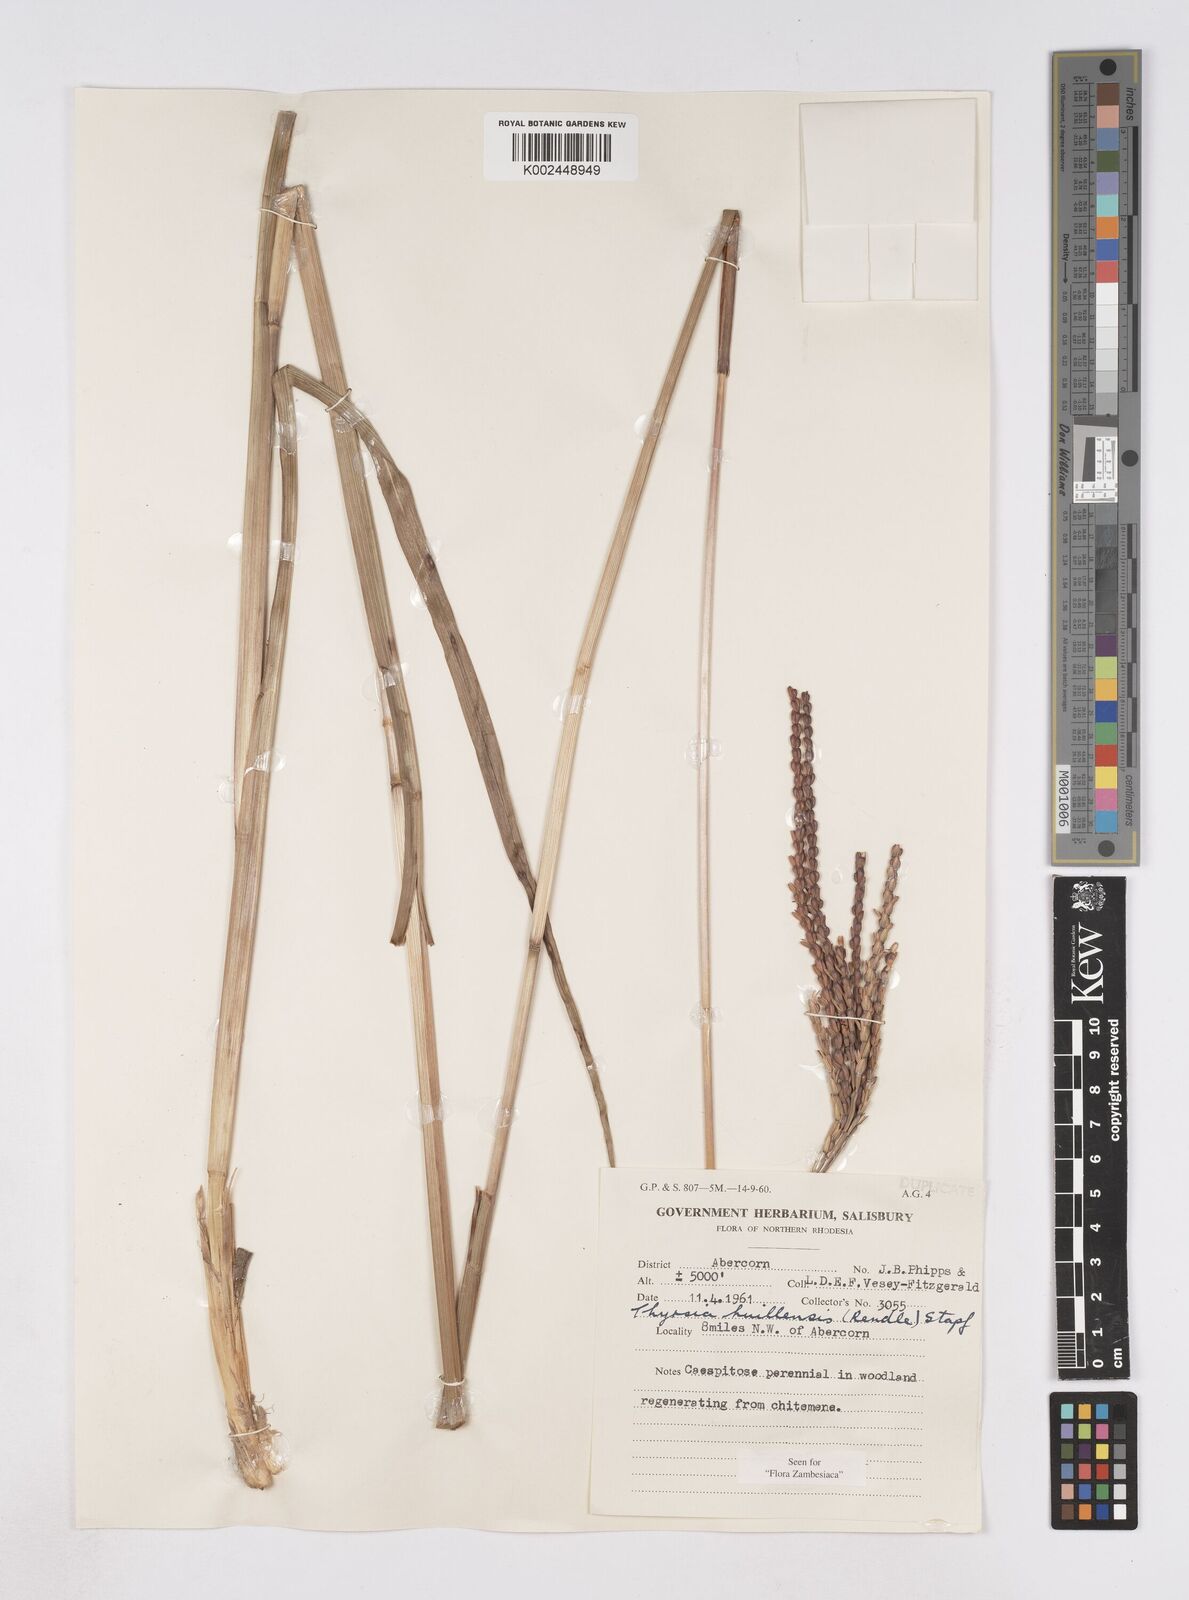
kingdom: Plantae
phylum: Tracheophyta
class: Liliopsida
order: Poales
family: Poaceae
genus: Thyrsia
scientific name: Thyrsia huillensis
